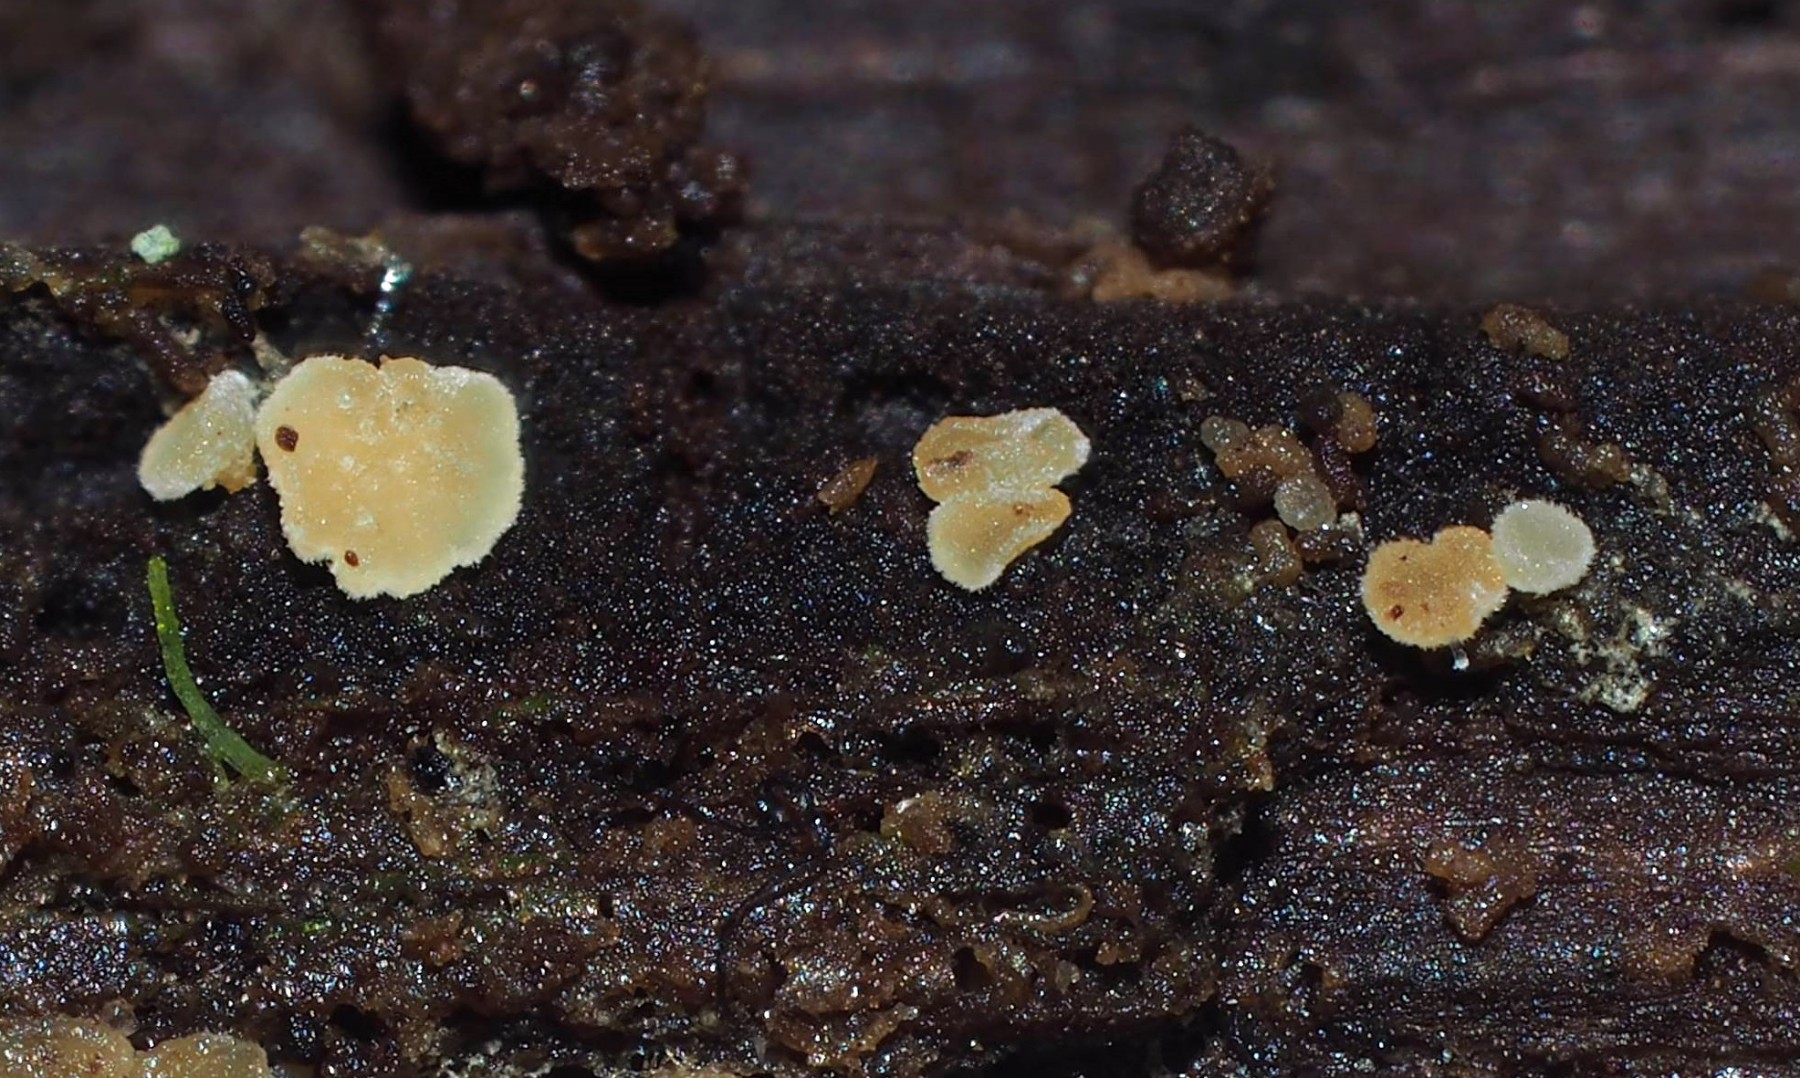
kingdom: Fungi
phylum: Ascomycota
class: Leotiomycetes
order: Helotiales
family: Hyaloscyphaceae
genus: Hyaloscypha
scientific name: Hyaloscypha daedaleae
